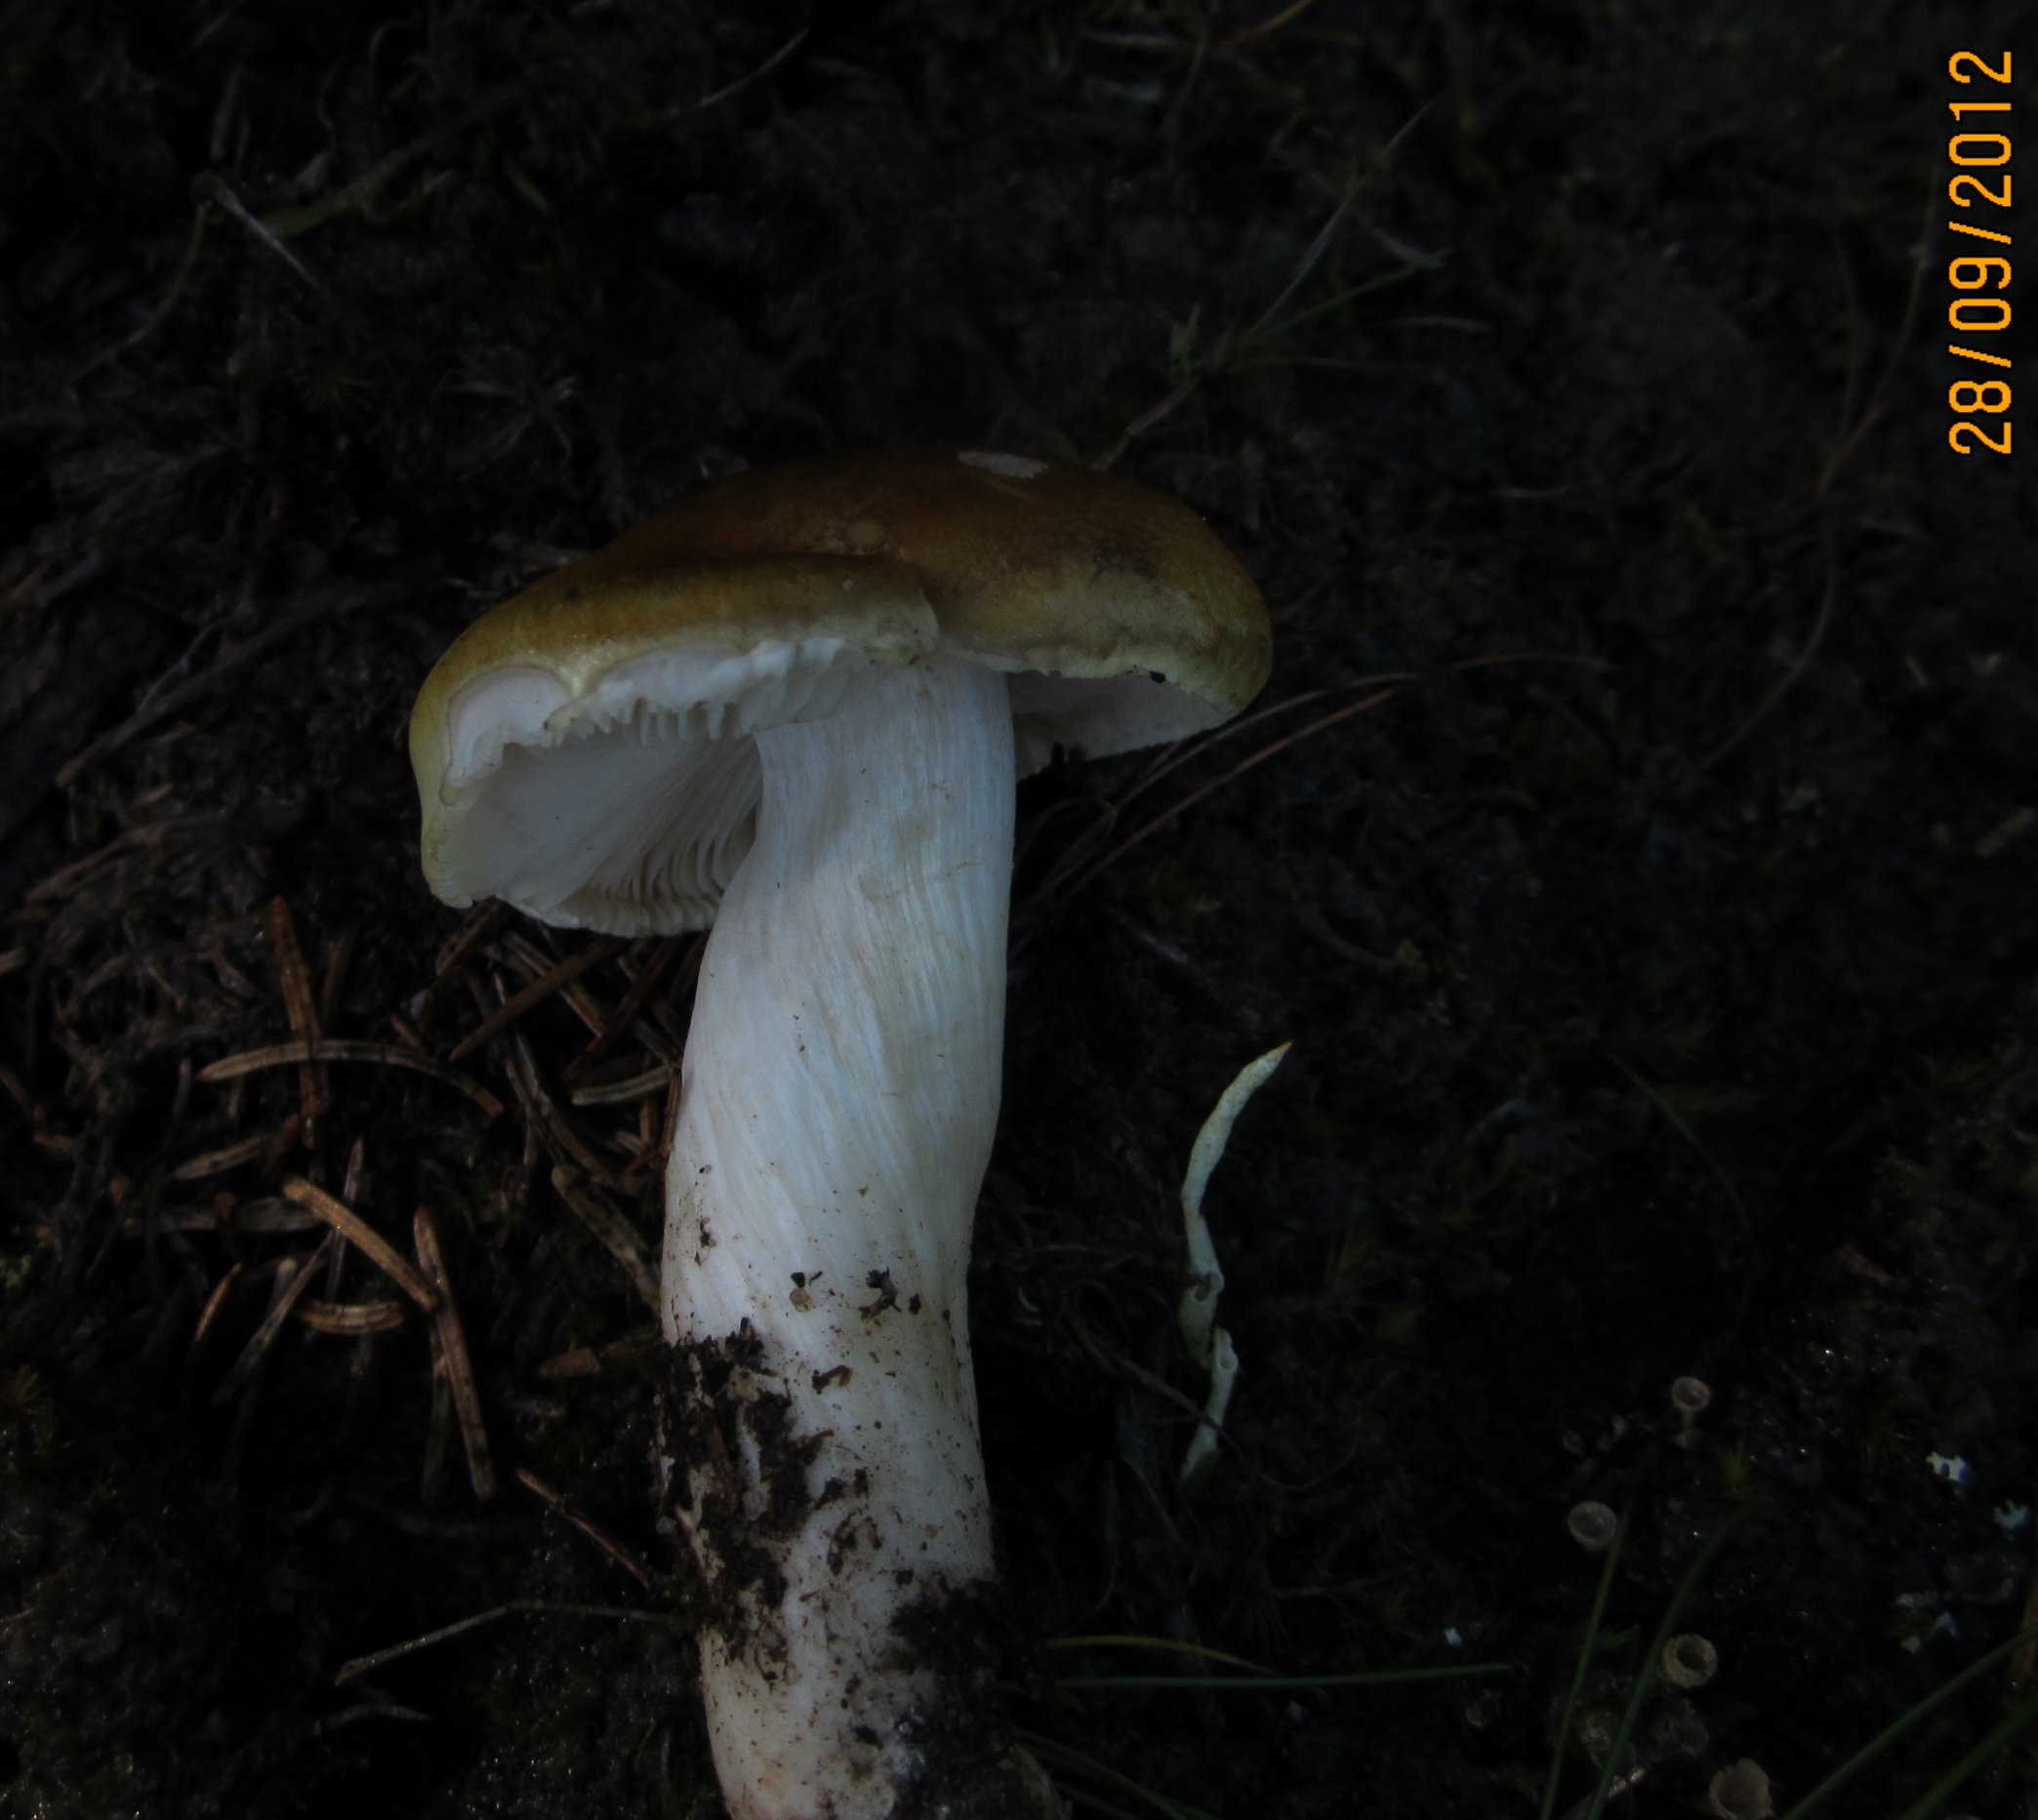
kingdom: Fungi
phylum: Basidiomycota
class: Agaricomycetes
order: Russulales
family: Russulaceae
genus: Russula
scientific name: Russula decolorans
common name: afblegende skørhat
